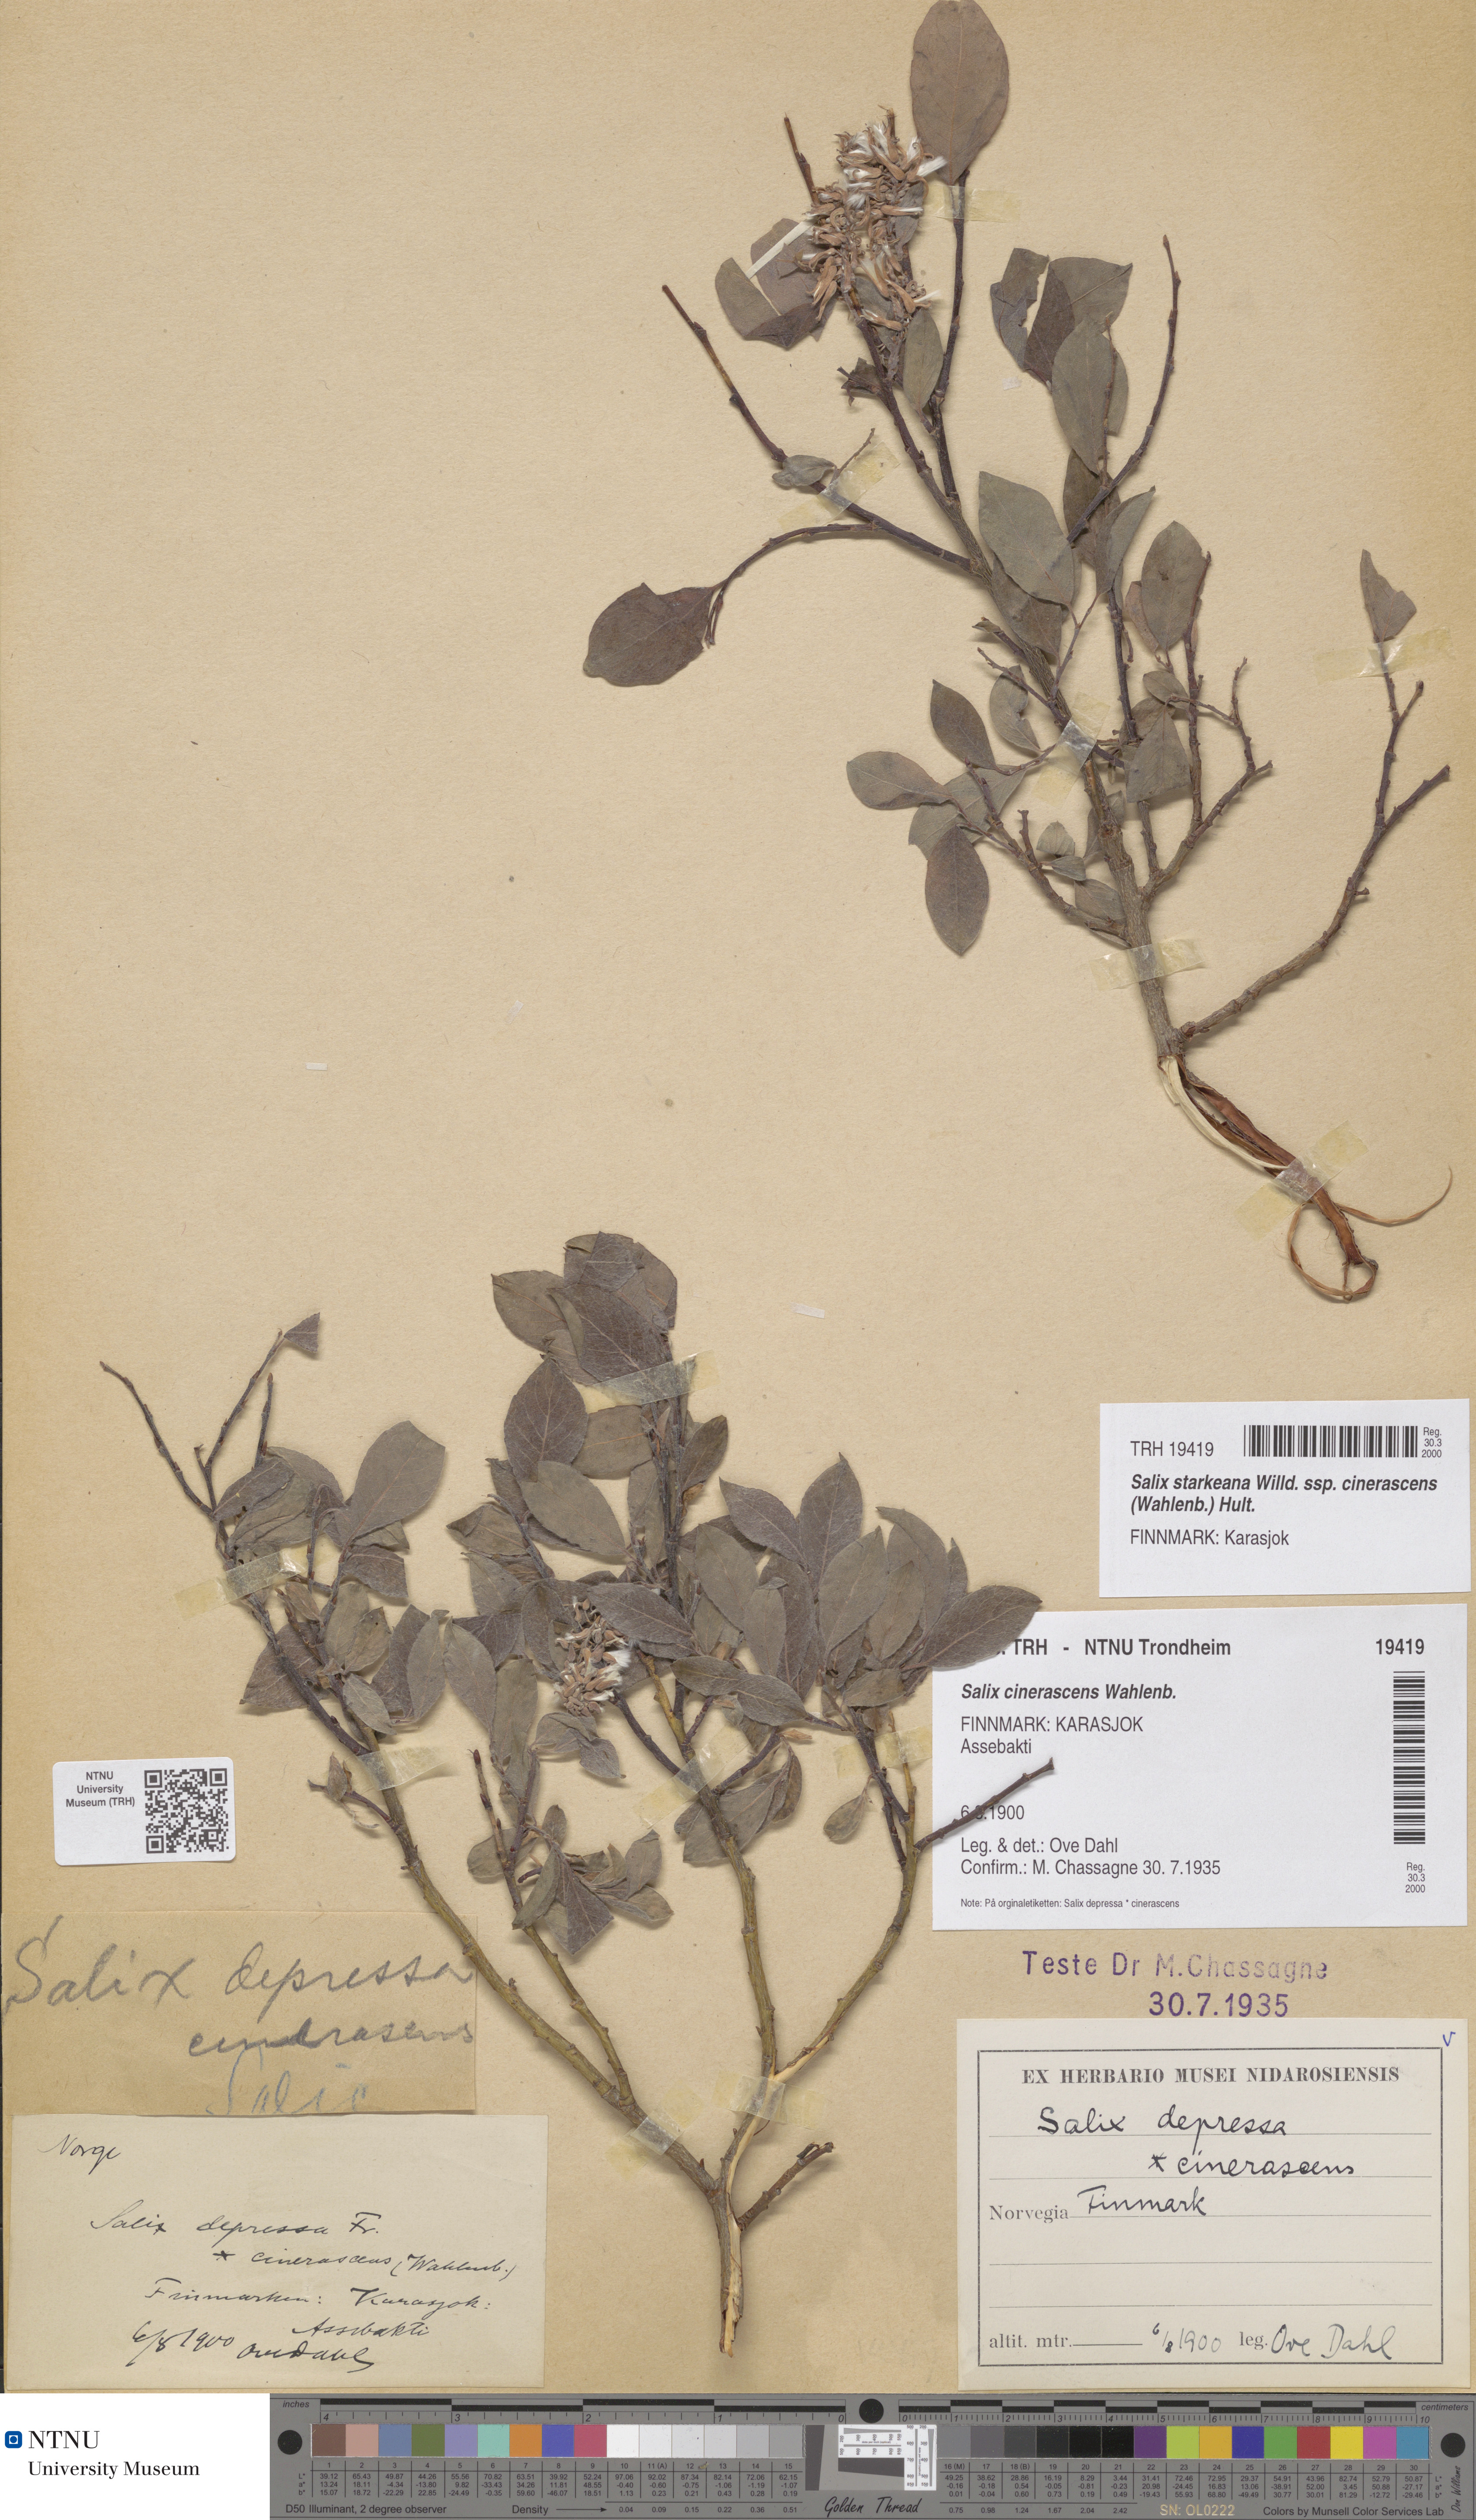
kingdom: Plantae
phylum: Tracheophyta
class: Magnoliopsida
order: Malpighiales
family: Salicaceae
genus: Salix
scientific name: Salix bebbiana
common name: Bebb's willow
